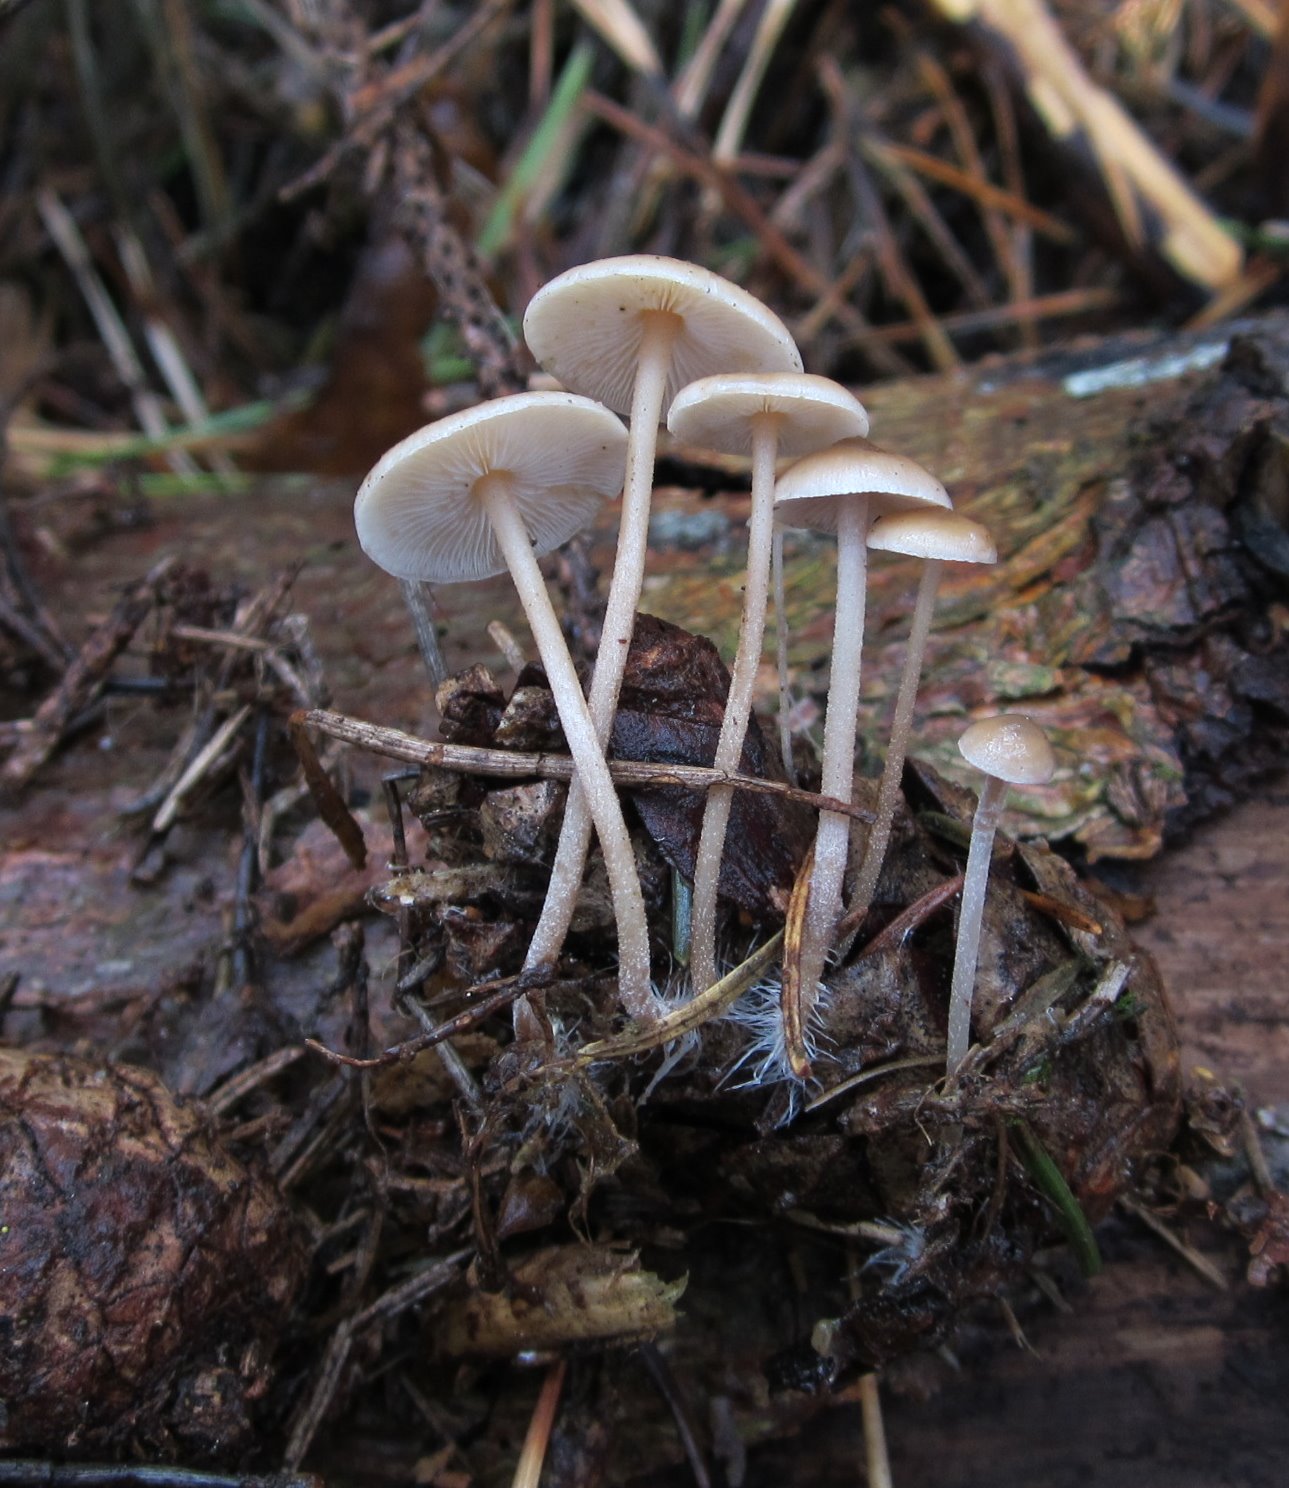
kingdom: Fungi
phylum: Basidiomycota
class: Agaricomycetes
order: Agaricales
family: Marasmiaceae
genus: Baeospora
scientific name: Baeospora myosura
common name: koglebruskhat
